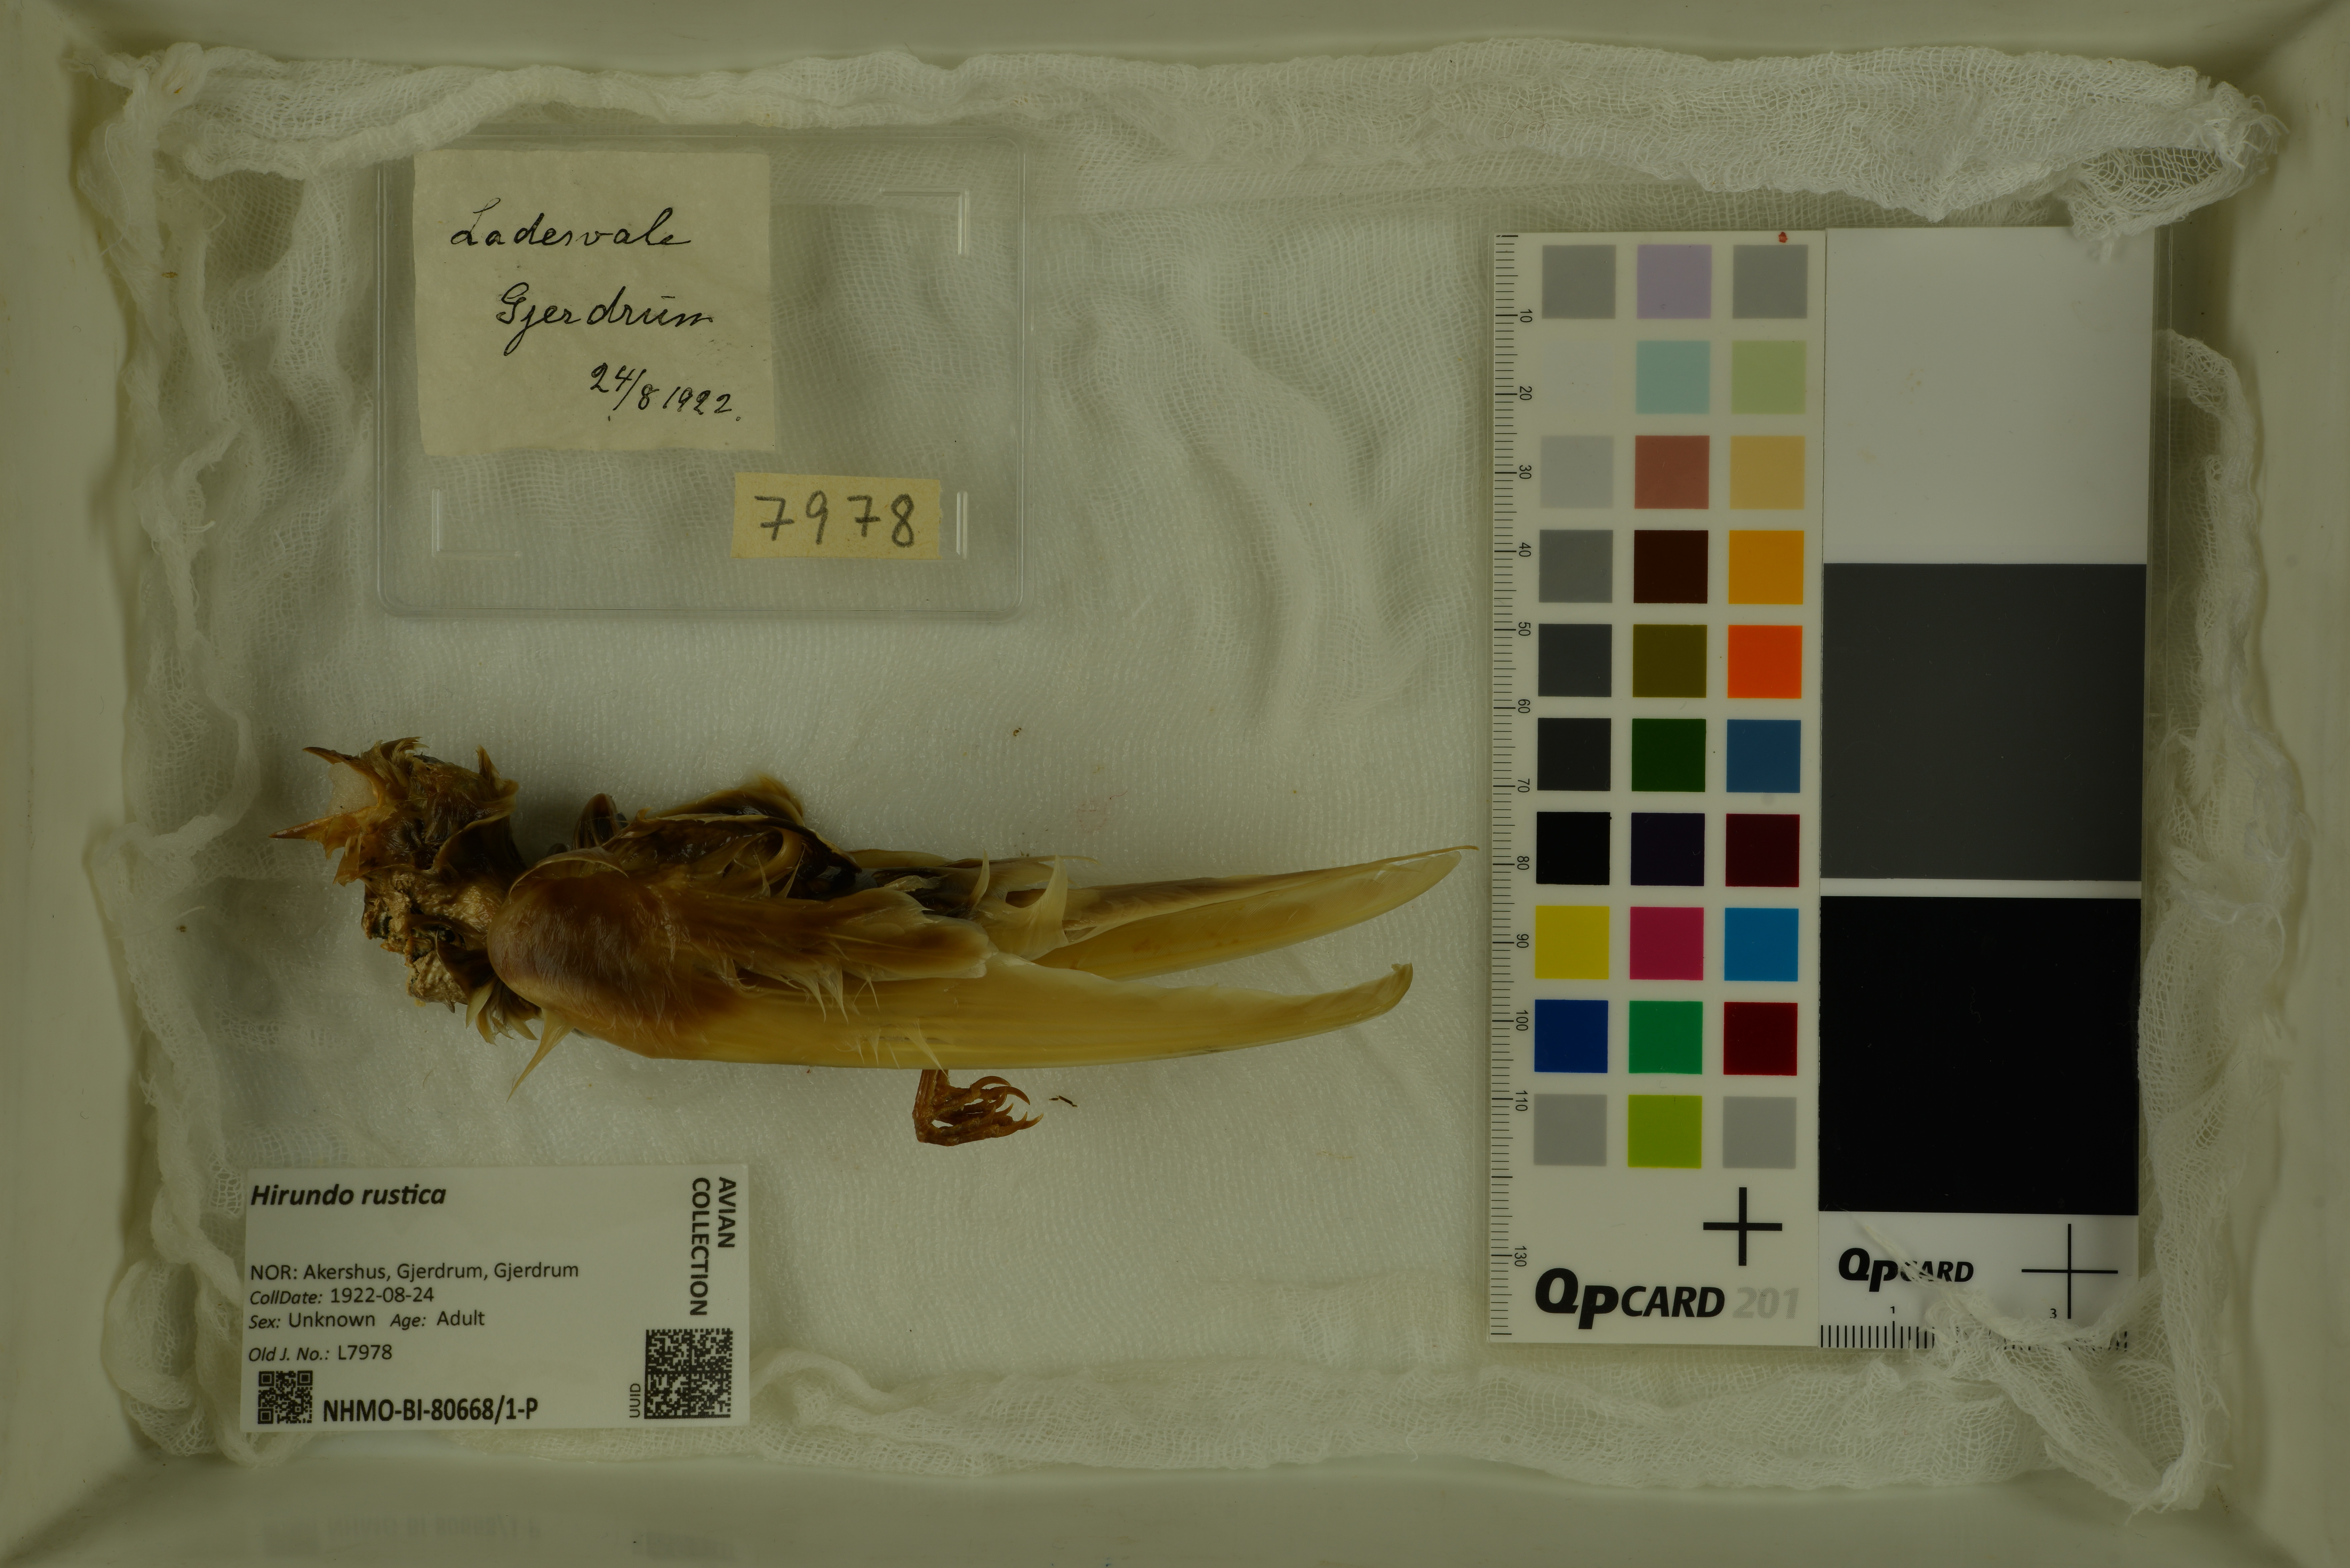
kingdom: Animalia
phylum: Chordata
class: Aves
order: Passeriformes
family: Hirundinidae
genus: Hirundo
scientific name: Hirundo rustica
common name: Barn swallow
